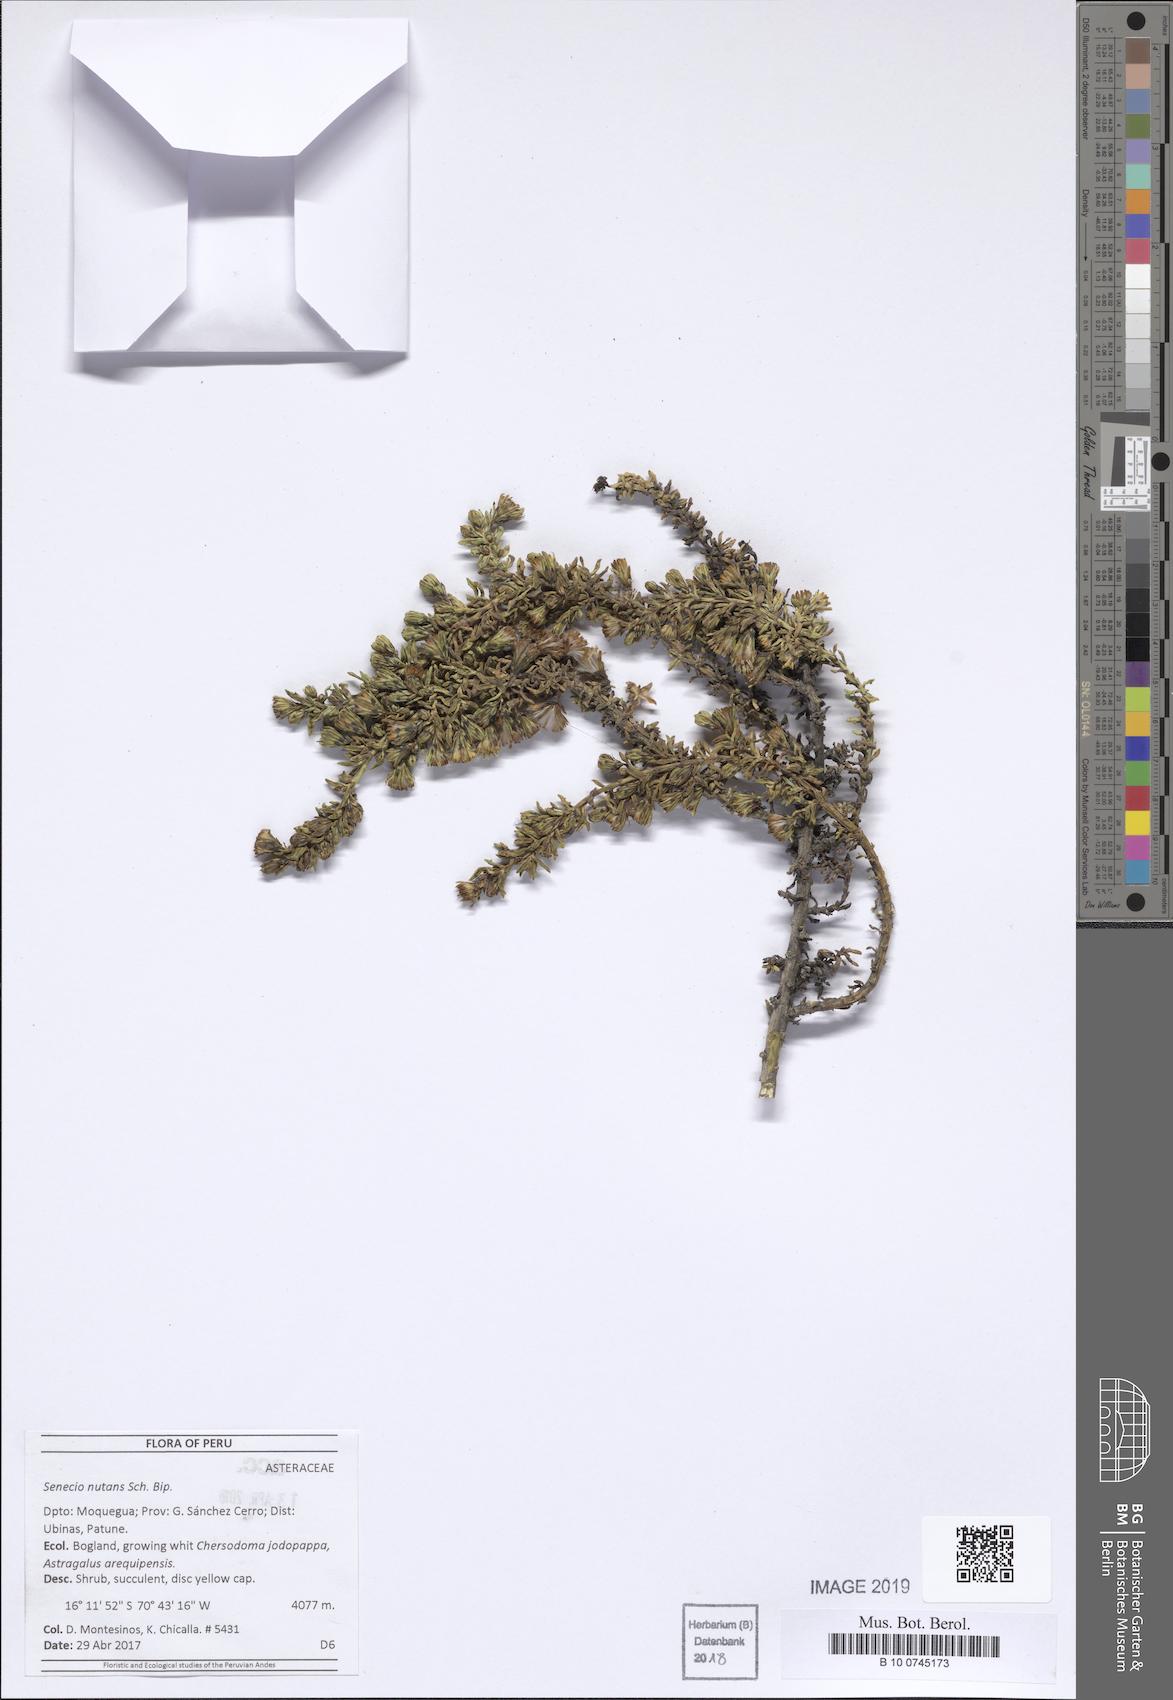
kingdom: Plantae
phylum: Tracheophyta
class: Magnoliopsida
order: Asterales
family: Asteraceae
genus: Senecio
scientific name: Senecio nutans
